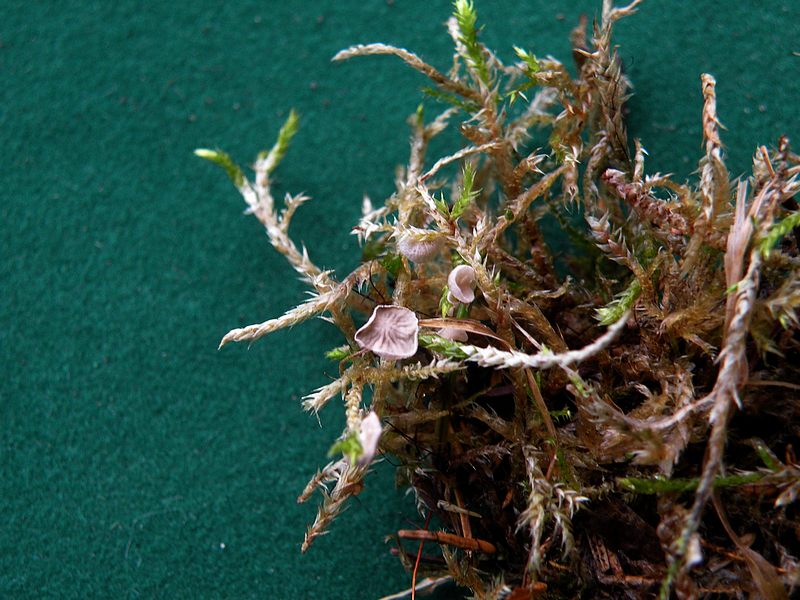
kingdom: Fungi
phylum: Basidiomycota
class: Agaricomycetes
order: Agaricales
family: Hygrophoraceae
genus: Arrhenia
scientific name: Arrhenia retiruga
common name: lille fontænehat
